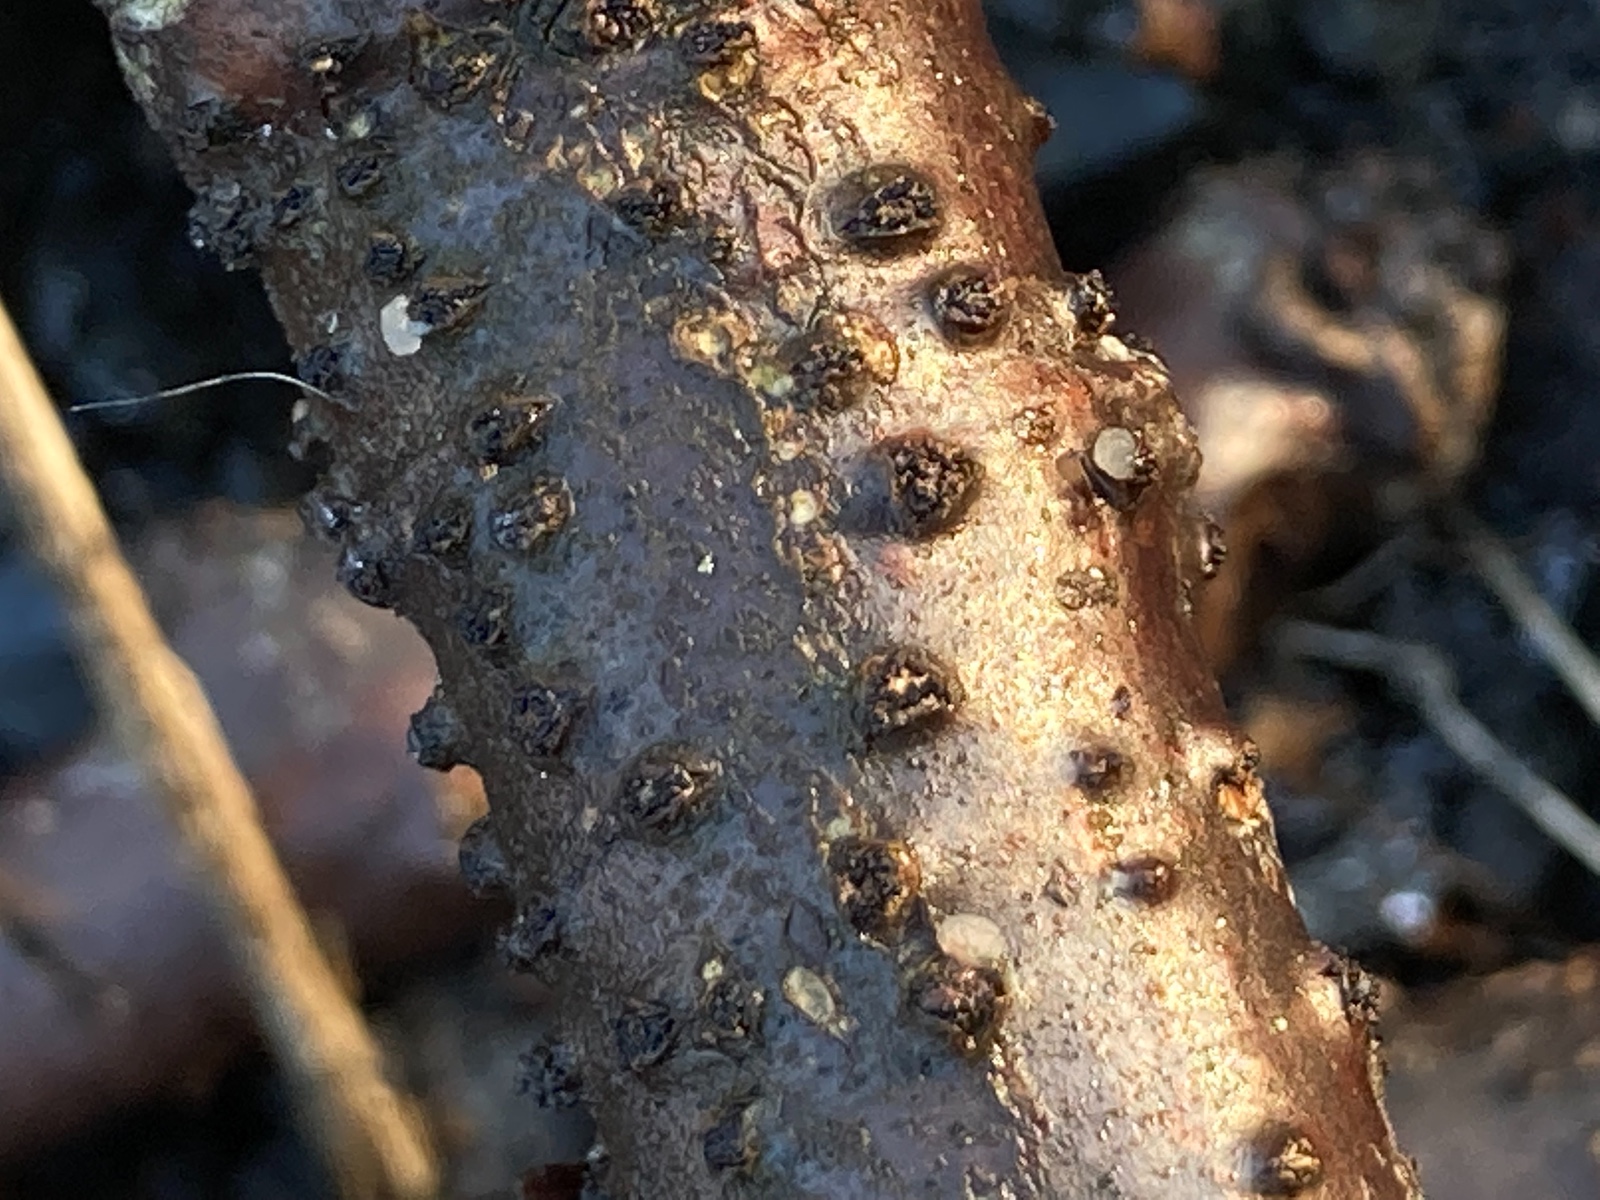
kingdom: Fungi
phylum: Ascomycota
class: Sordariomycetes
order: Diaporthales
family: Erythrogloeaceae
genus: Dendrostoma
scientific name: Dendrostoma leiphaemia
